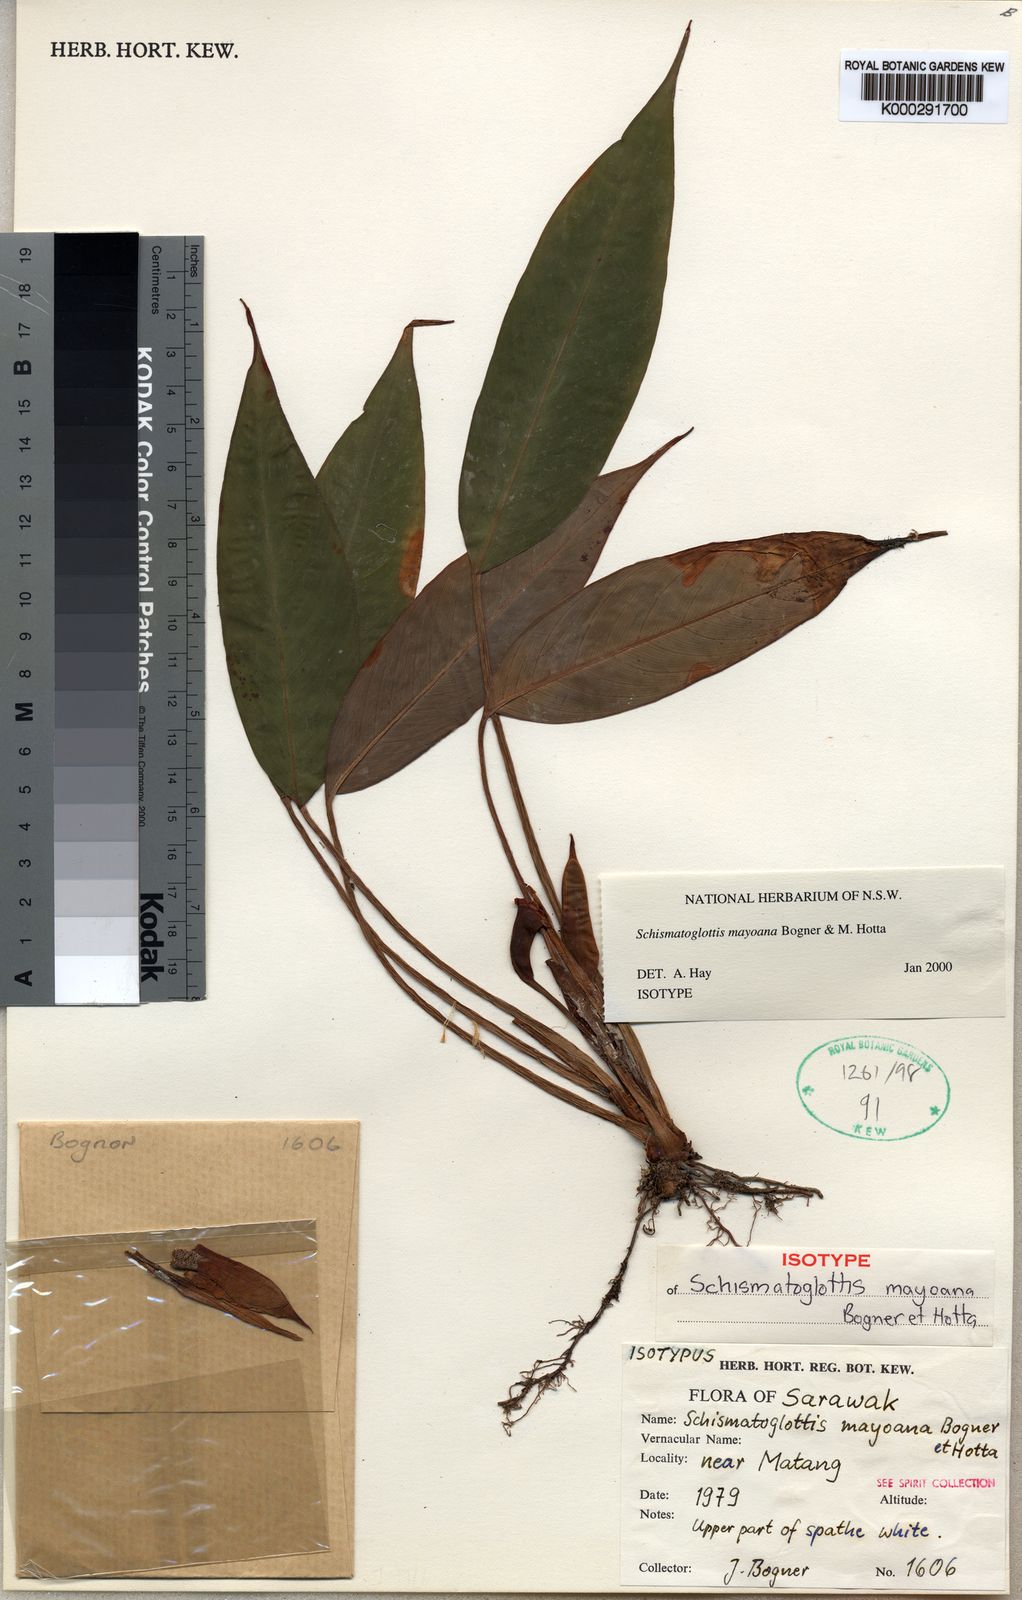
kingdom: Plantae
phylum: Tracheophyta
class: Liliopsida
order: Alismatales
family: Araceae
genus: Schismatoglottis
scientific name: Schismatoglottis mayoana
